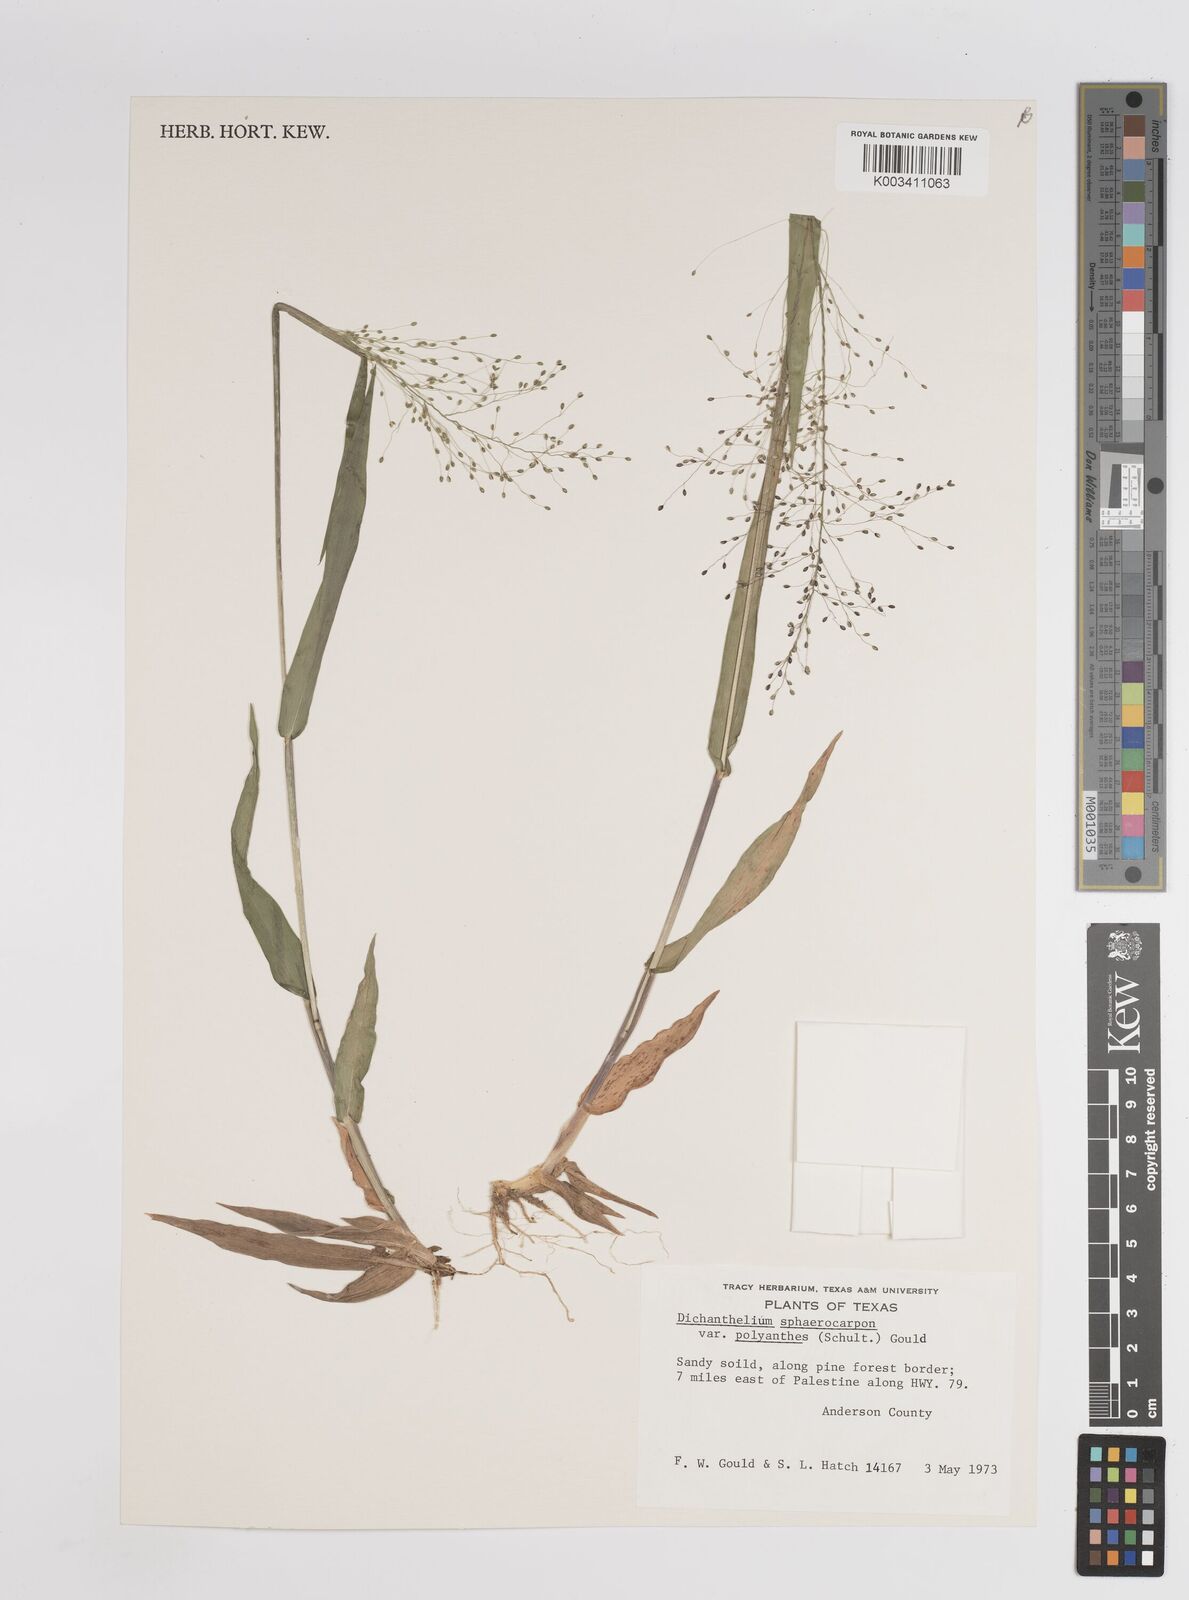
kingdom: Plantae
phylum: Tracheophyta
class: Liliopsida
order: Poales
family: Poaceae
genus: Dichanthelium
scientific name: Dichanthelium polyanthes
